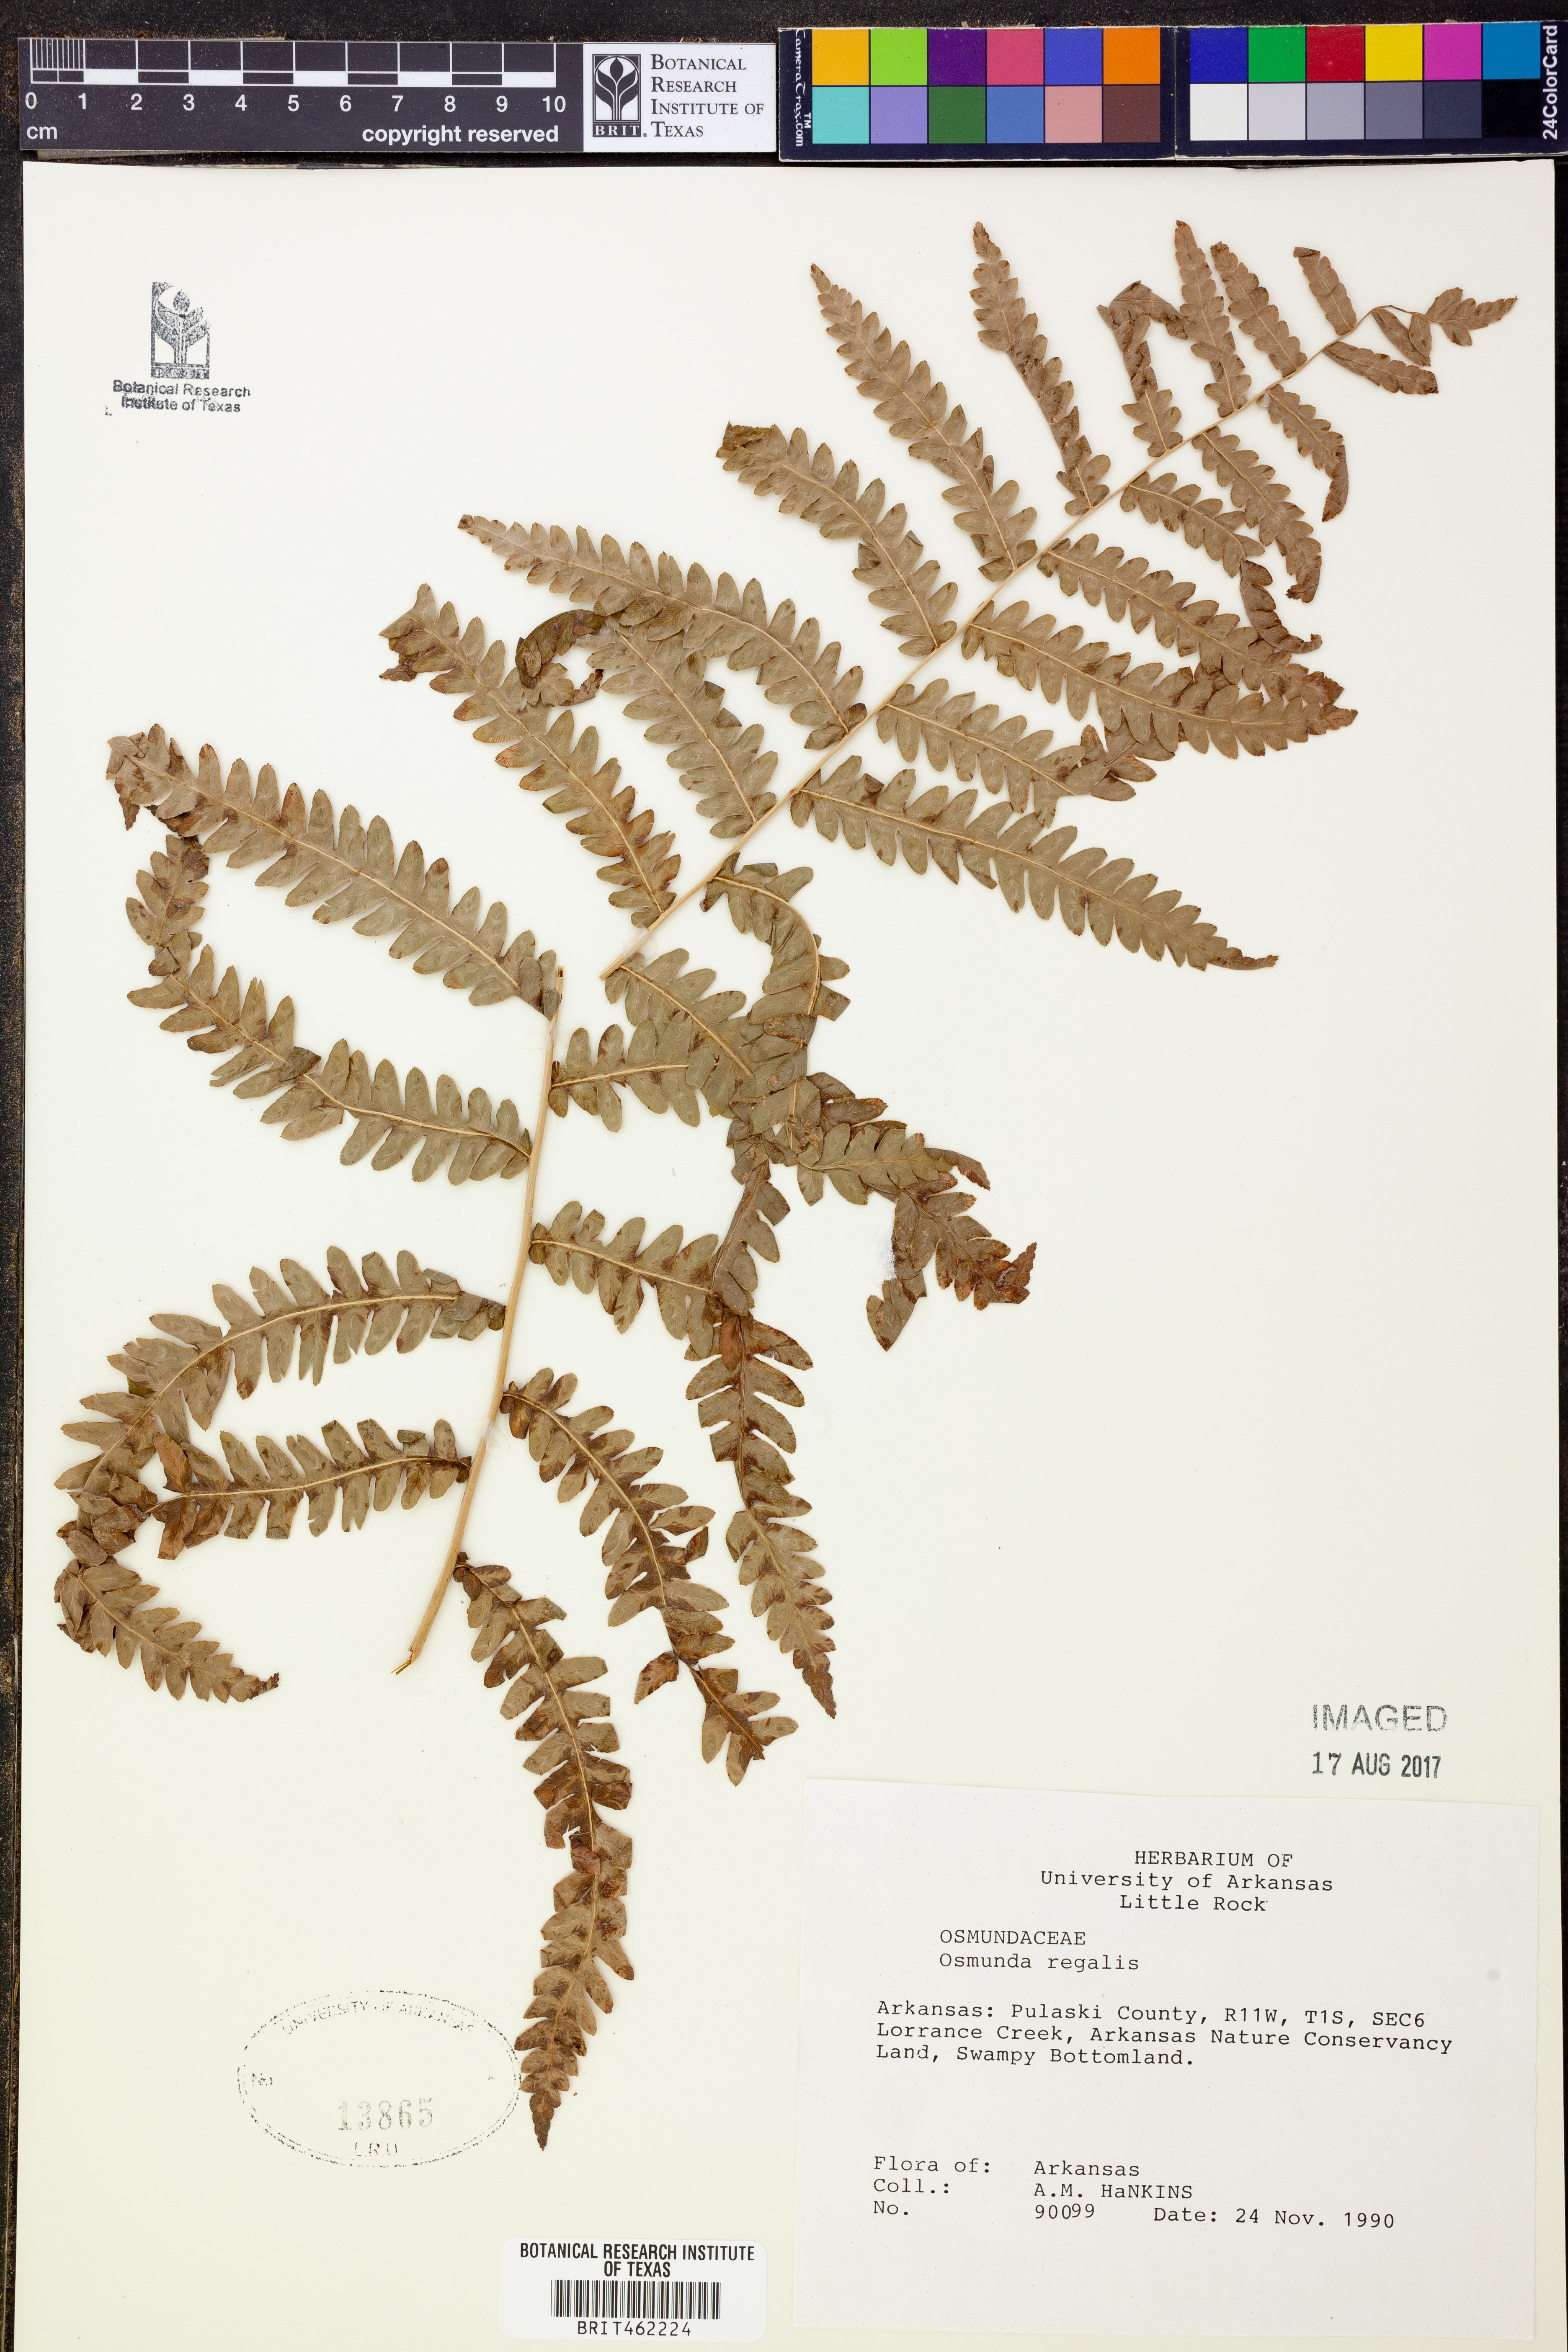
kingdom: Plantae
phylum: Tracheophyta
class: Polypodiopsida
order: Osmundales
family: Osmundaceae
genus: Osmunda
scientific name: Osmunda regalis
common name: Royal fern
